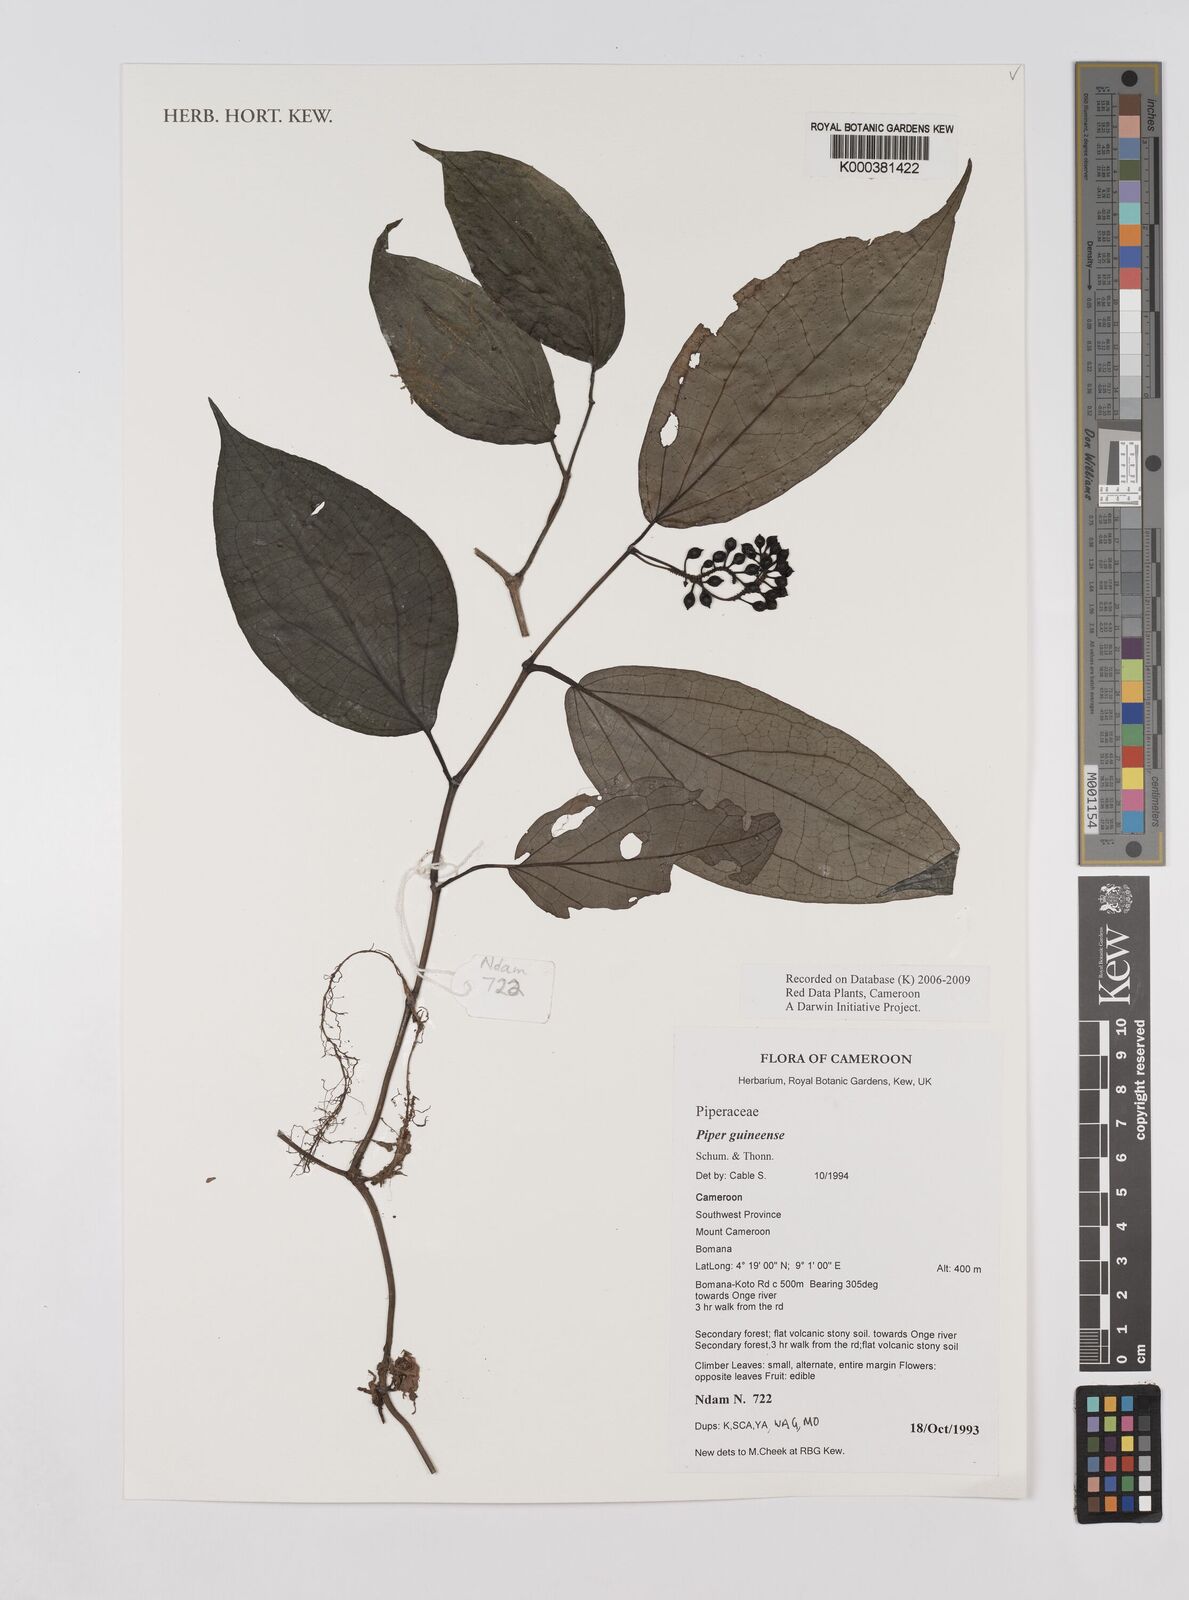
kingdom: Plantae
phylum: Tracheophyta
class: Magnoliopsida
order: Piperales
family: Piperaceae
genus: Piper
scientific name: Piper guineense
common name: Benin pepper
